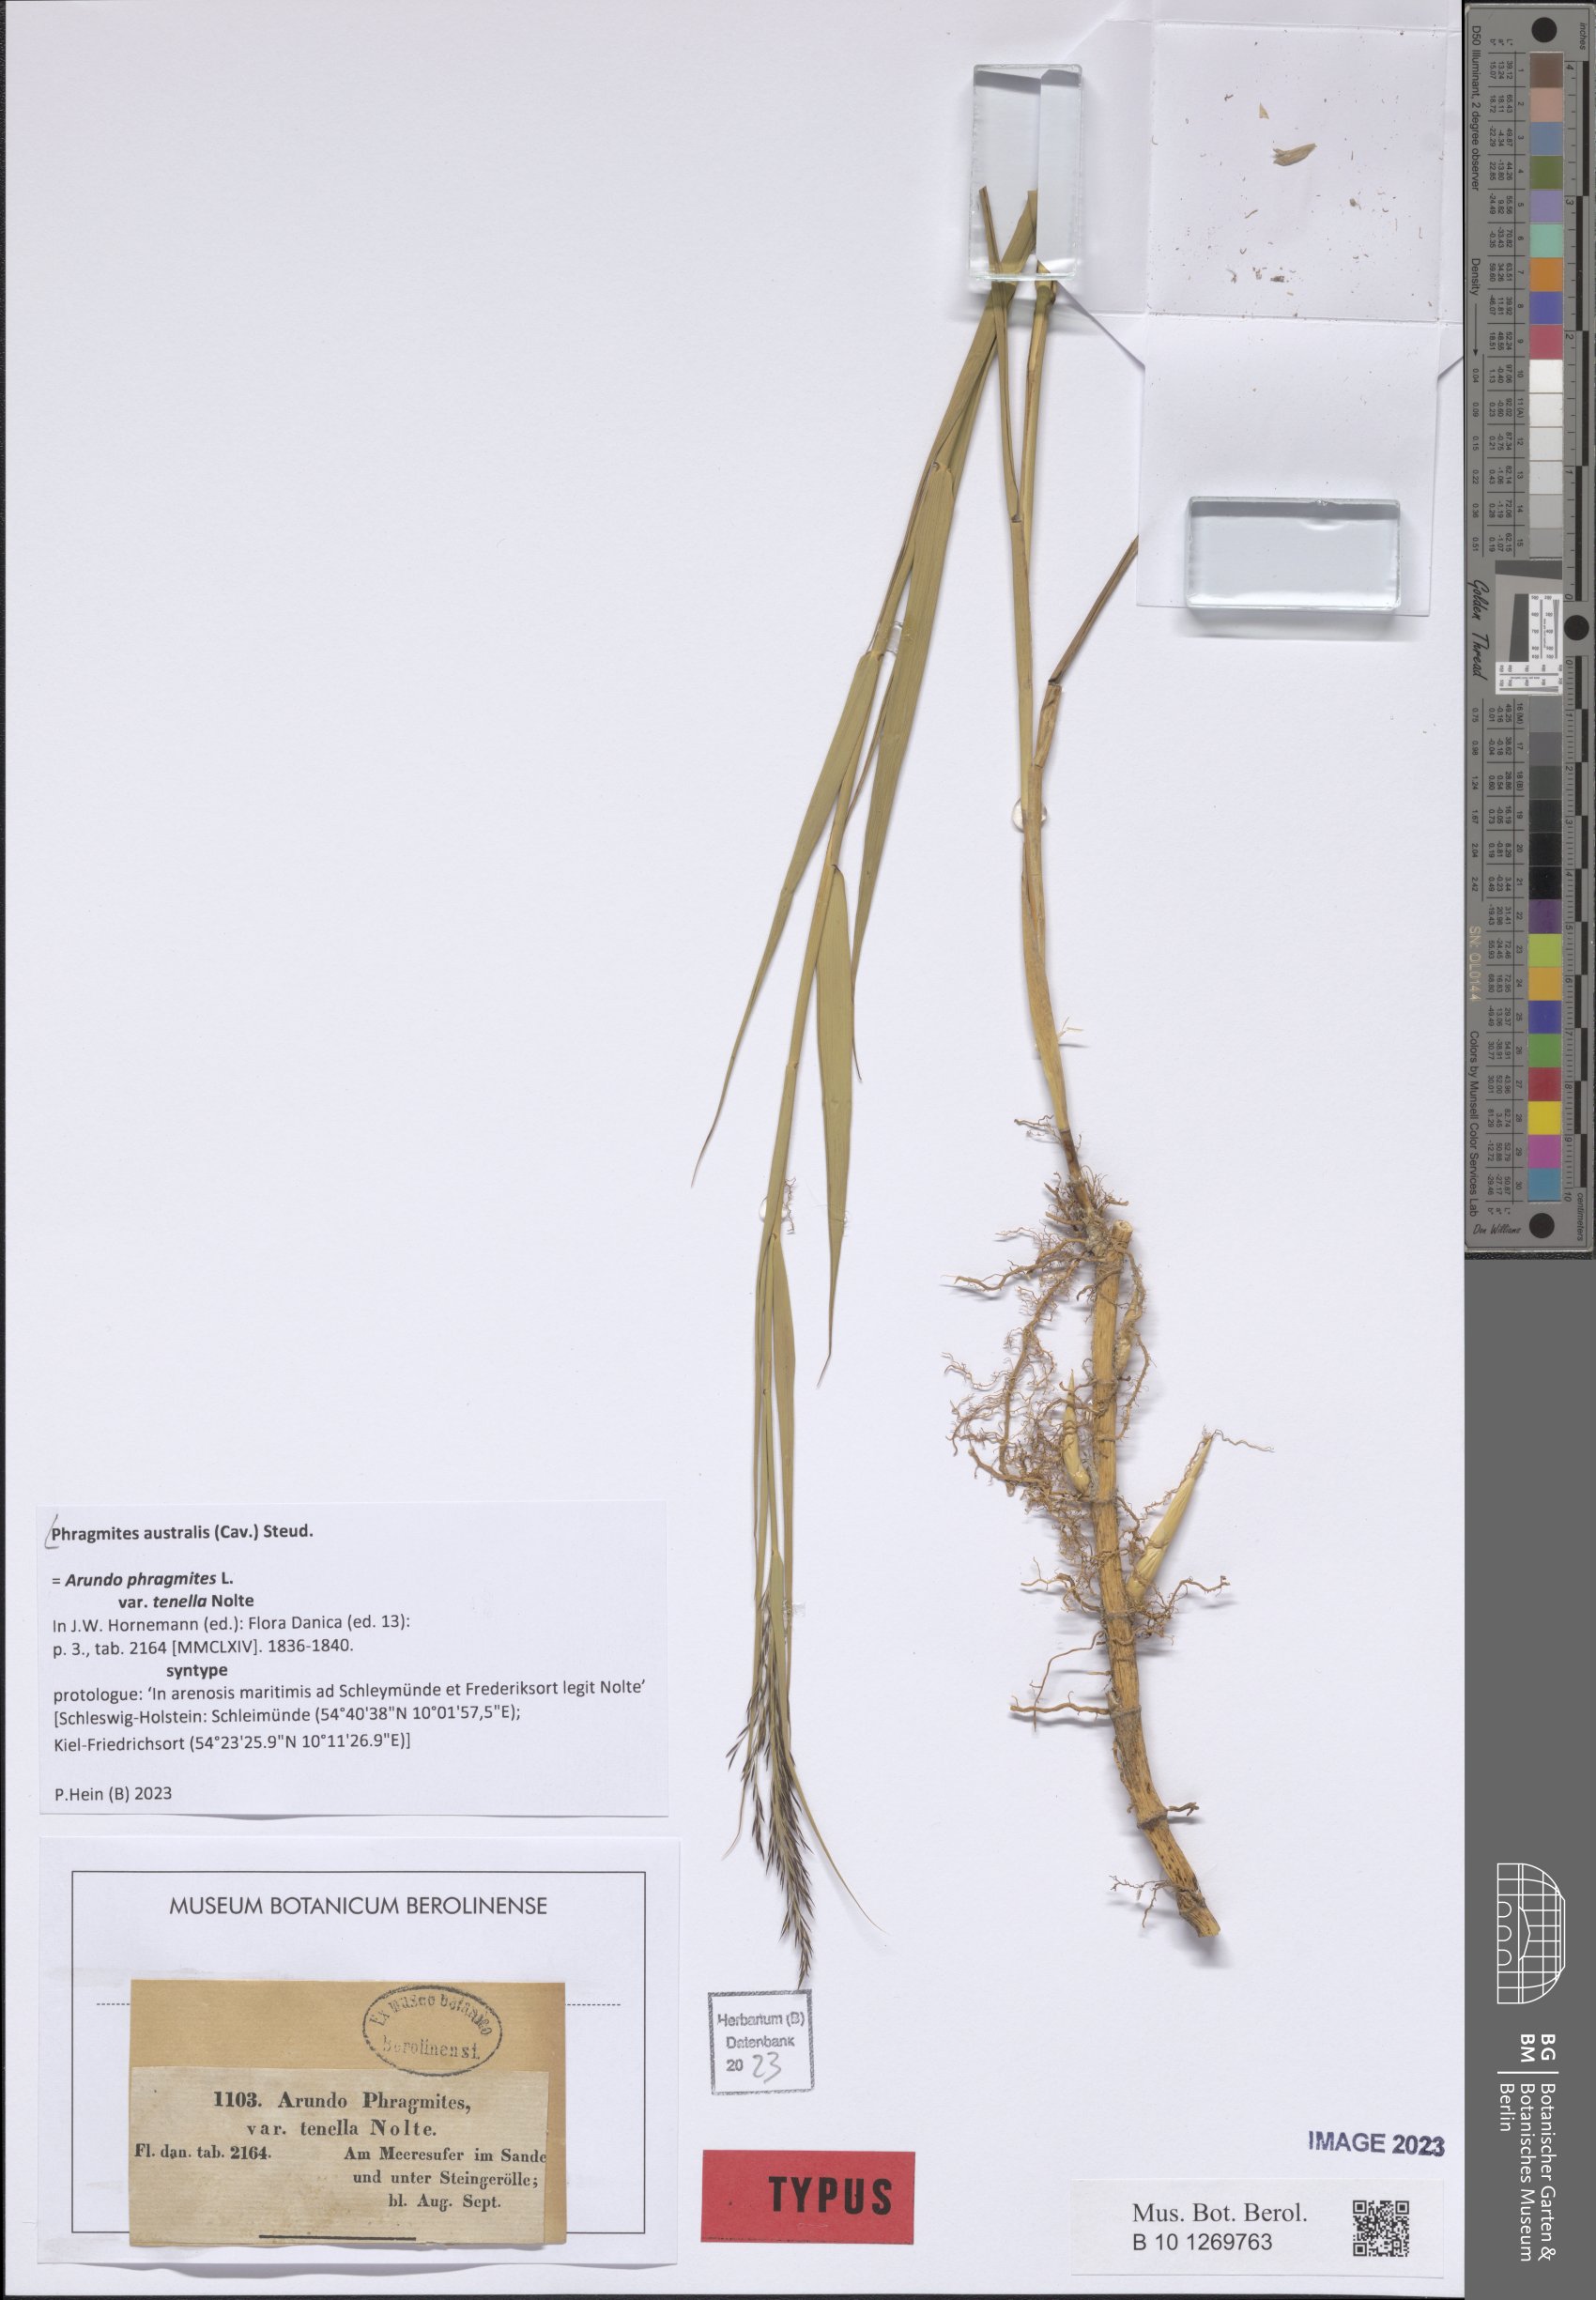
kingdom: Plantae
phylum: Tracheophyta
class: Liliopsida
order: Poales
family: Poaceae
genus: Phragmites
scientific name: Phragmites australis
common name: Common reed
